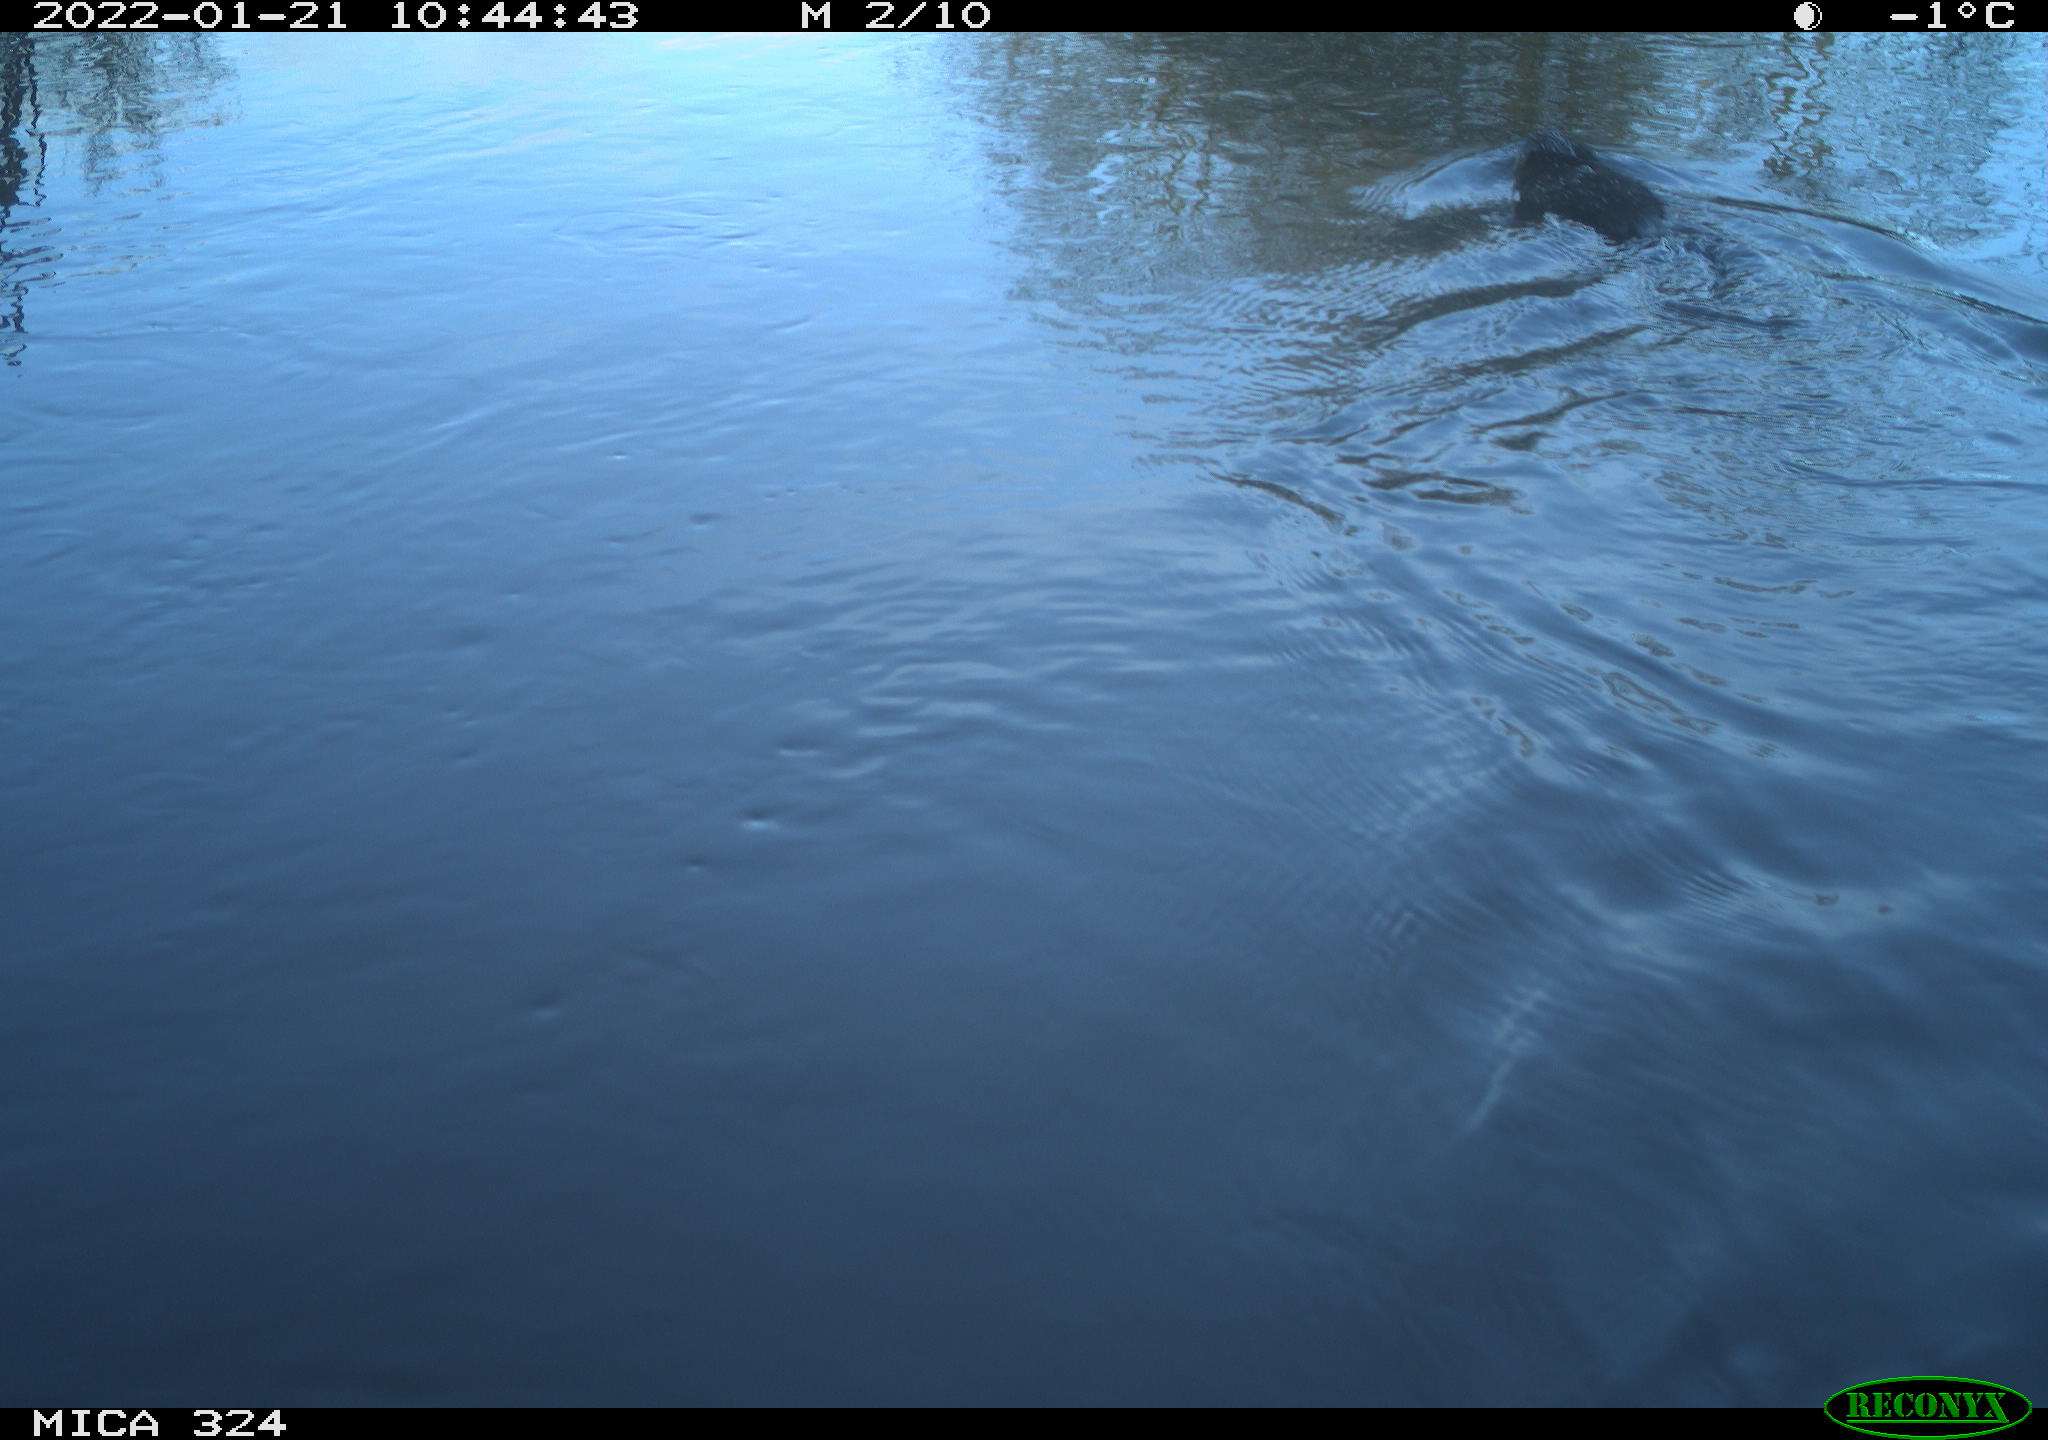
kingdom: Animalia
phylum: Chordata
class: Mammalia
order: Rodentia
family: Cricetidae
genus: Ondatra
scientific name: Ondatra zibethicus
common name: Muskrat
